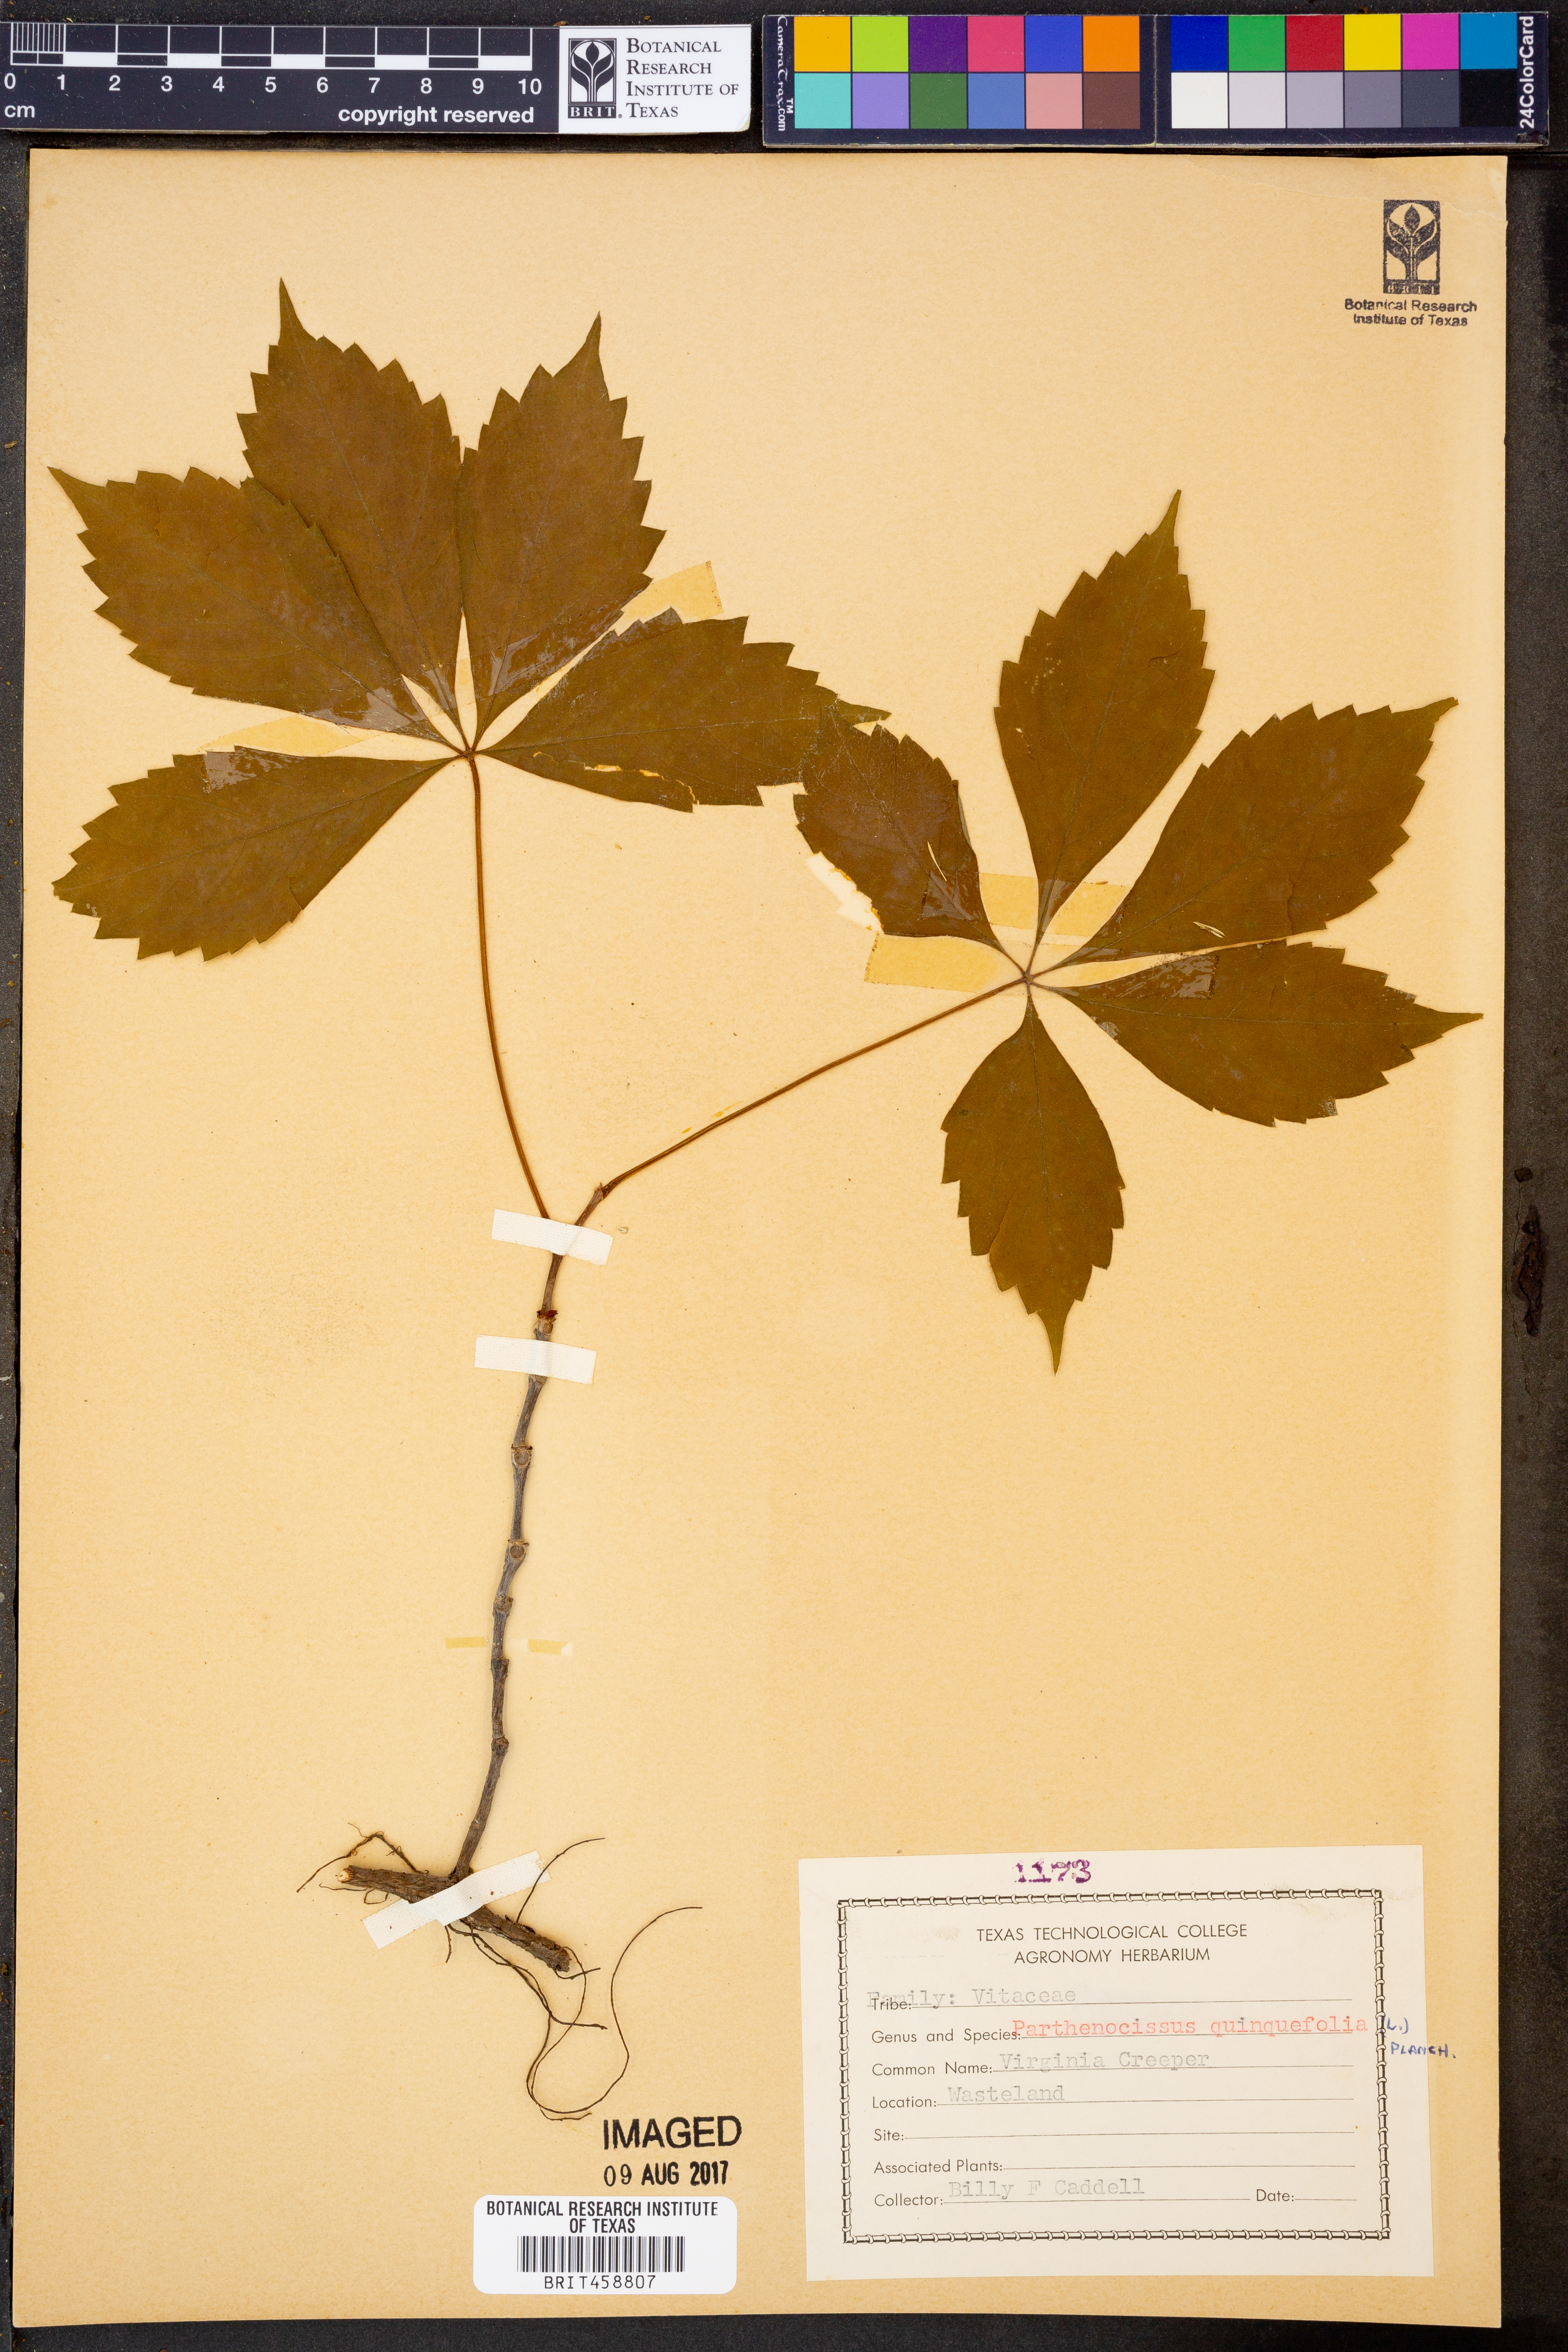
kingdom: Plantae
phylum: Tracheophyta
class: Magnoliopsida
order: Vitales
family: Vitaceae
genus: Parthenocissus
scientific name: Parthenocissus quinquefolia
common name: Virginia-creeper
